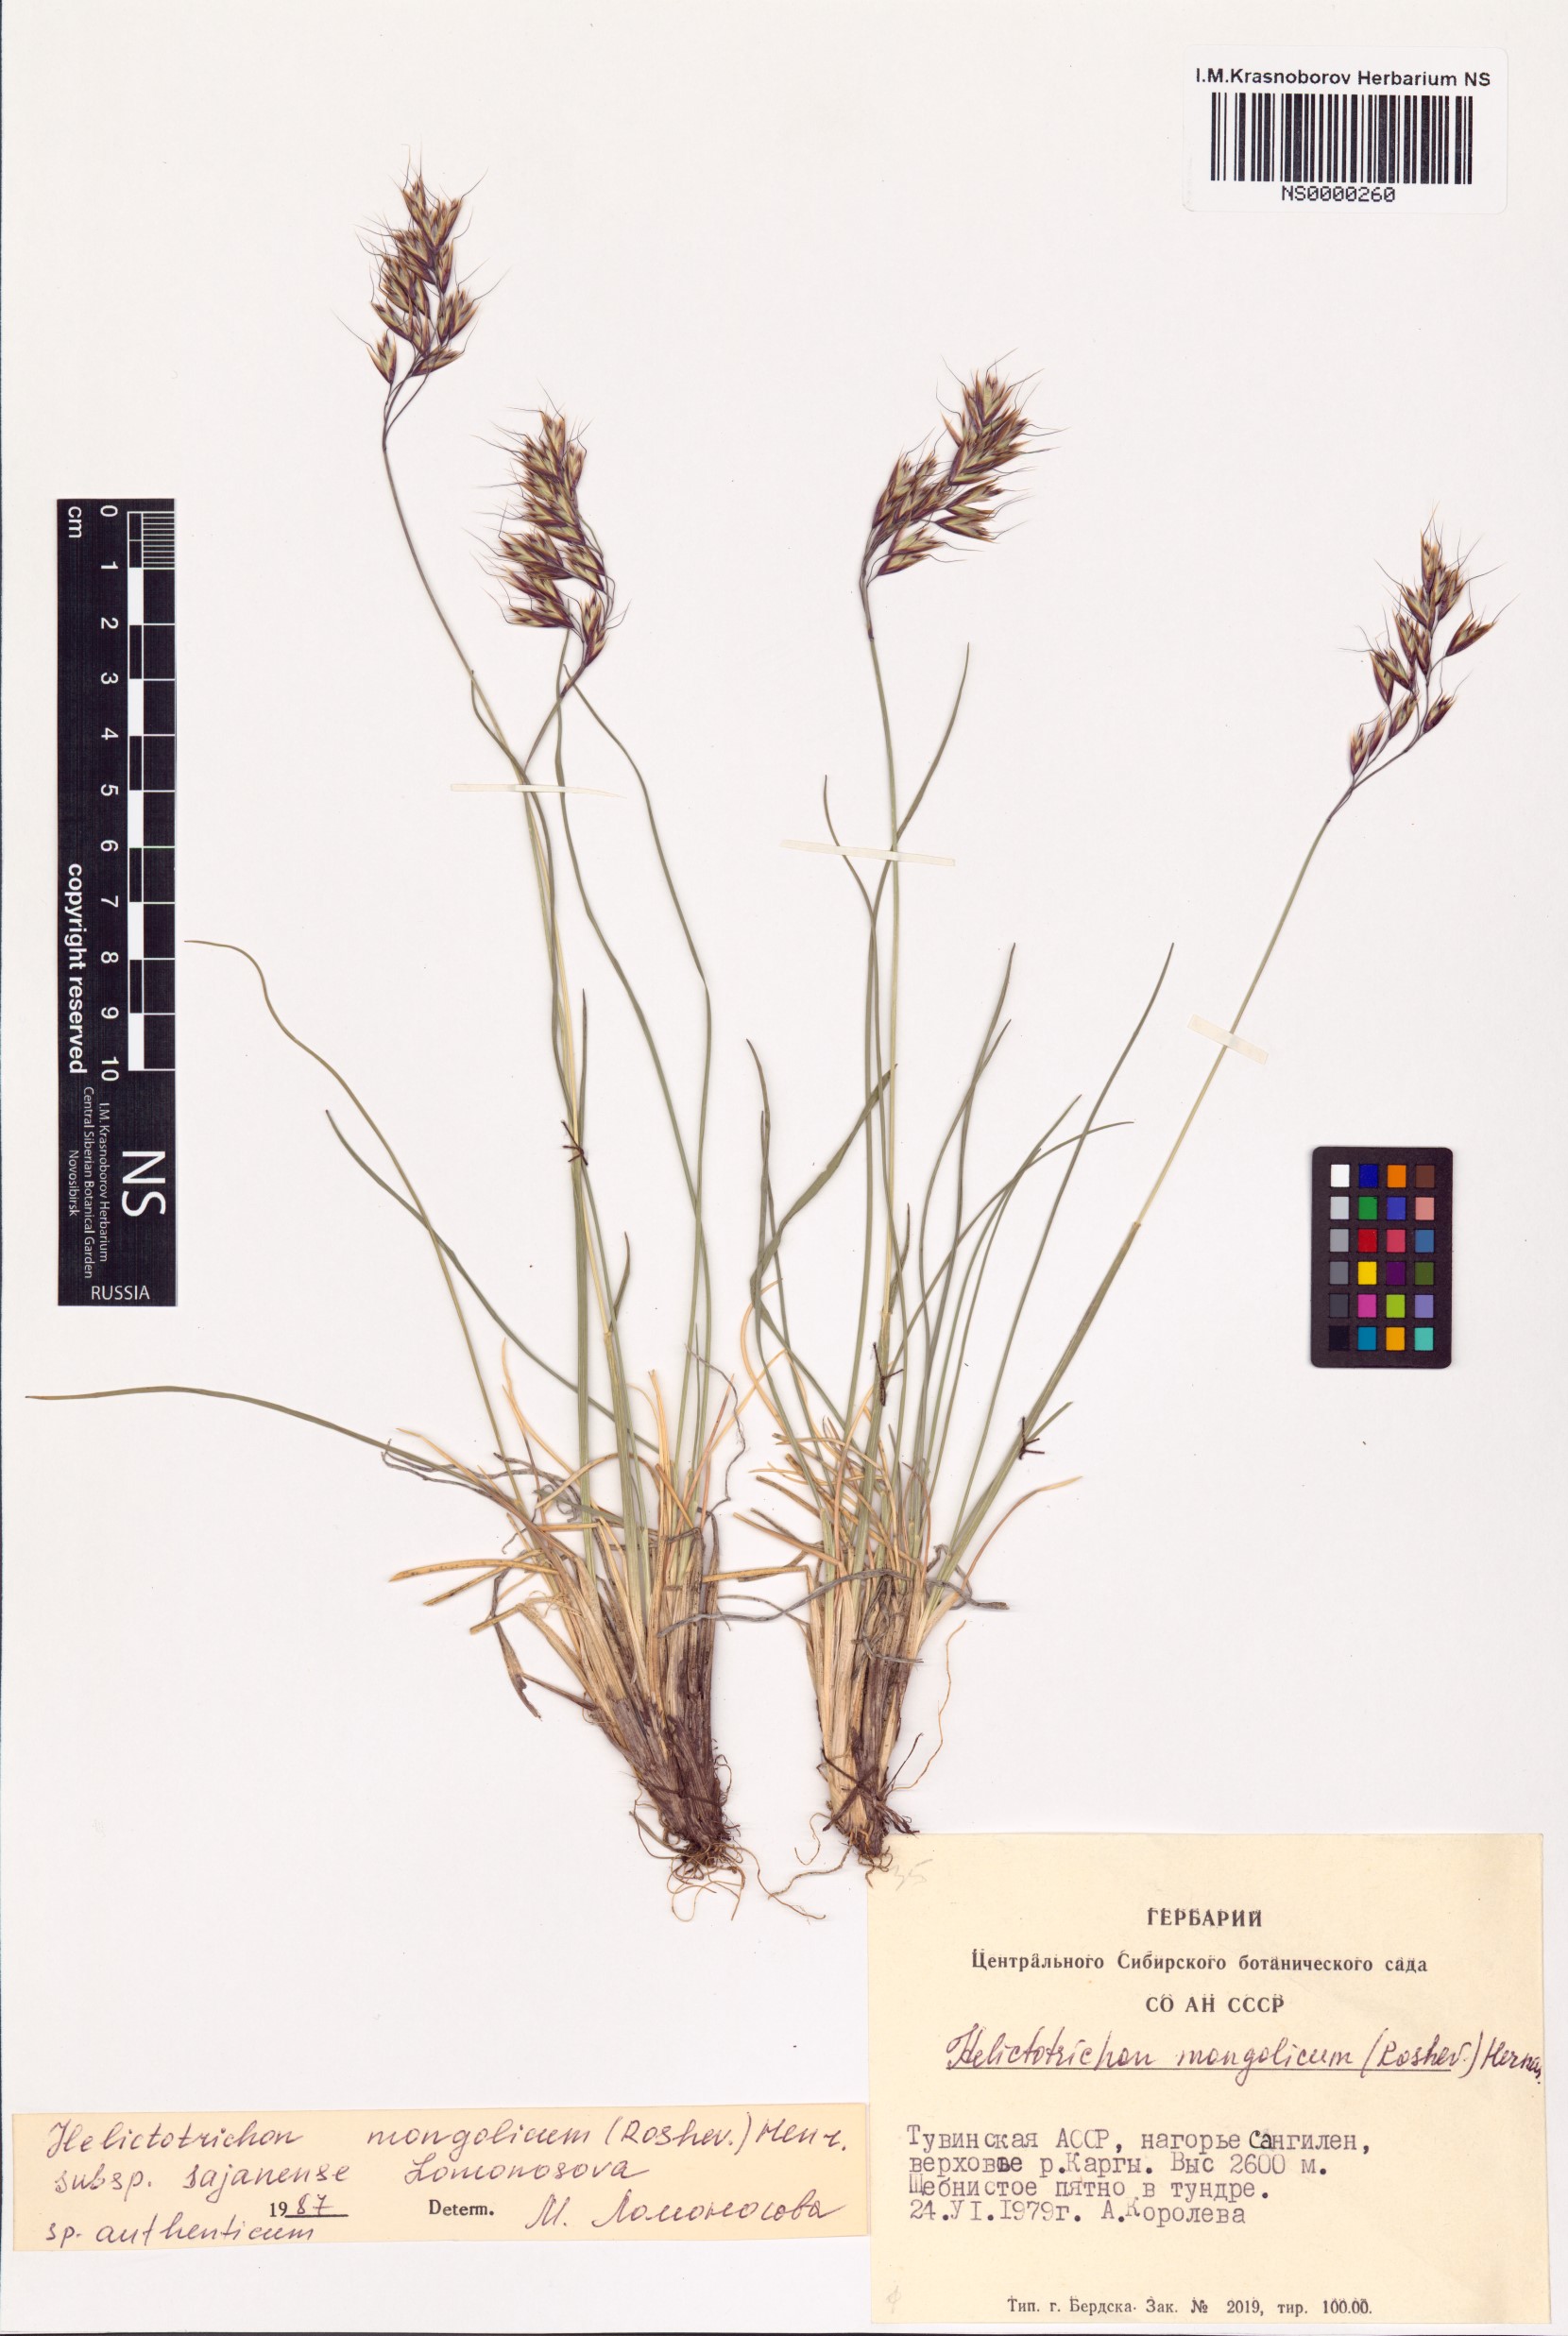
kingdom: Plantae
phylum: Tracheophyta
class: Liliopsida
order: Poales
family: Poaceae
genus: Helictotrichon
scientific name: Helictotrichon mongolicum
